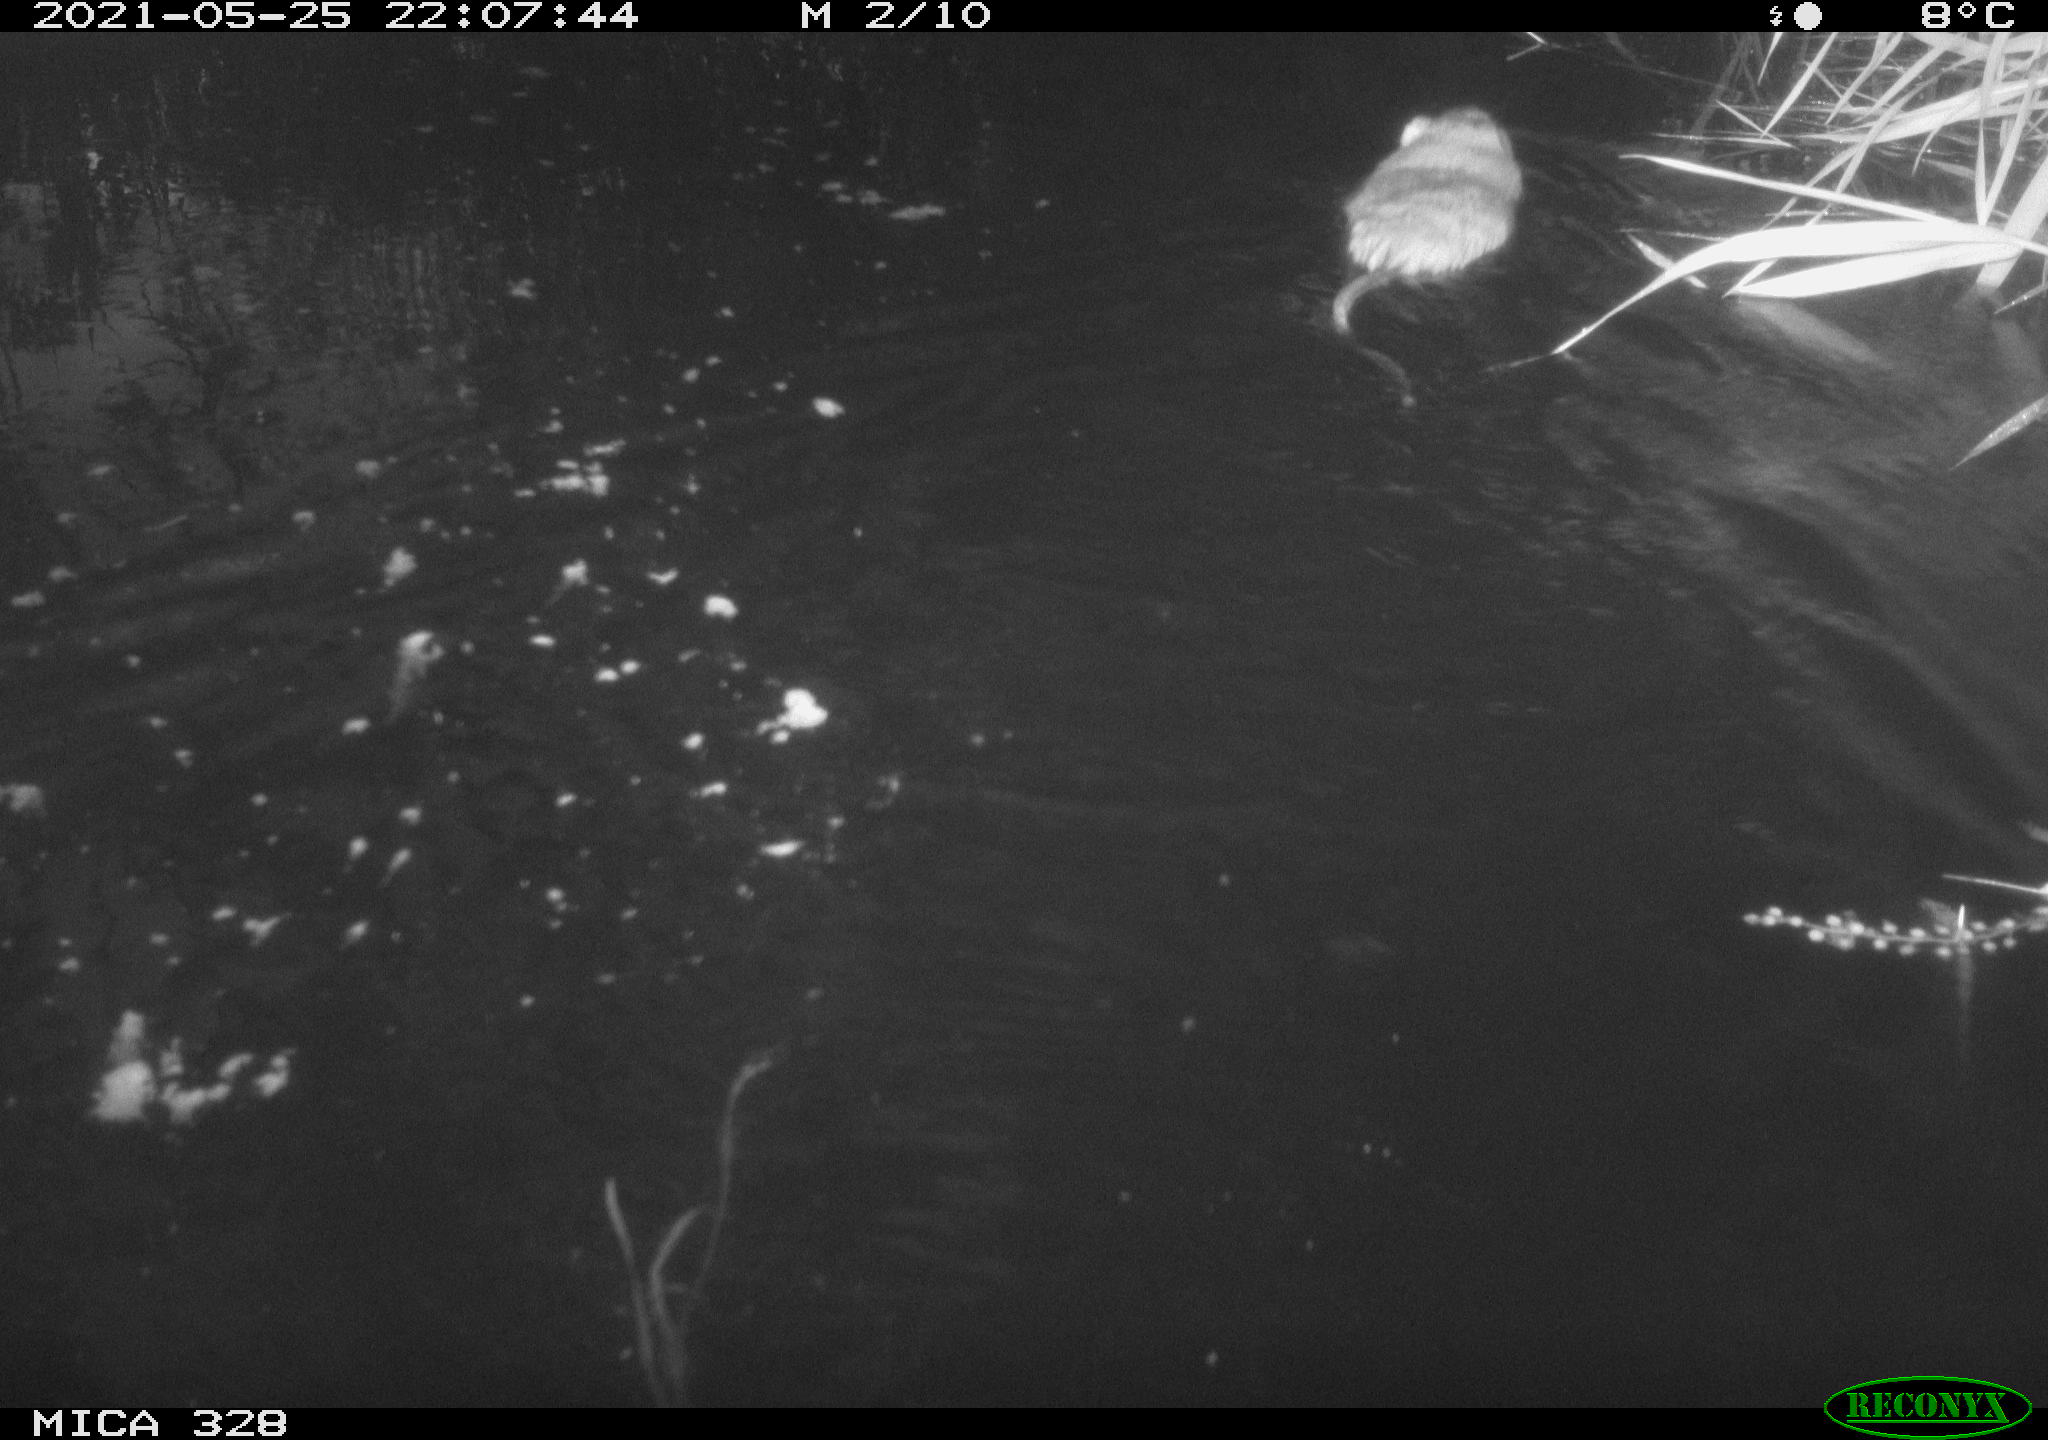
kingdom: Animalia
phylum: Chordata
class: Mammalia
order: Rodentia
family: Cricetidae
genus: Ondatra
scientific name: Ondatra zibethicus
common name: Muskrat
